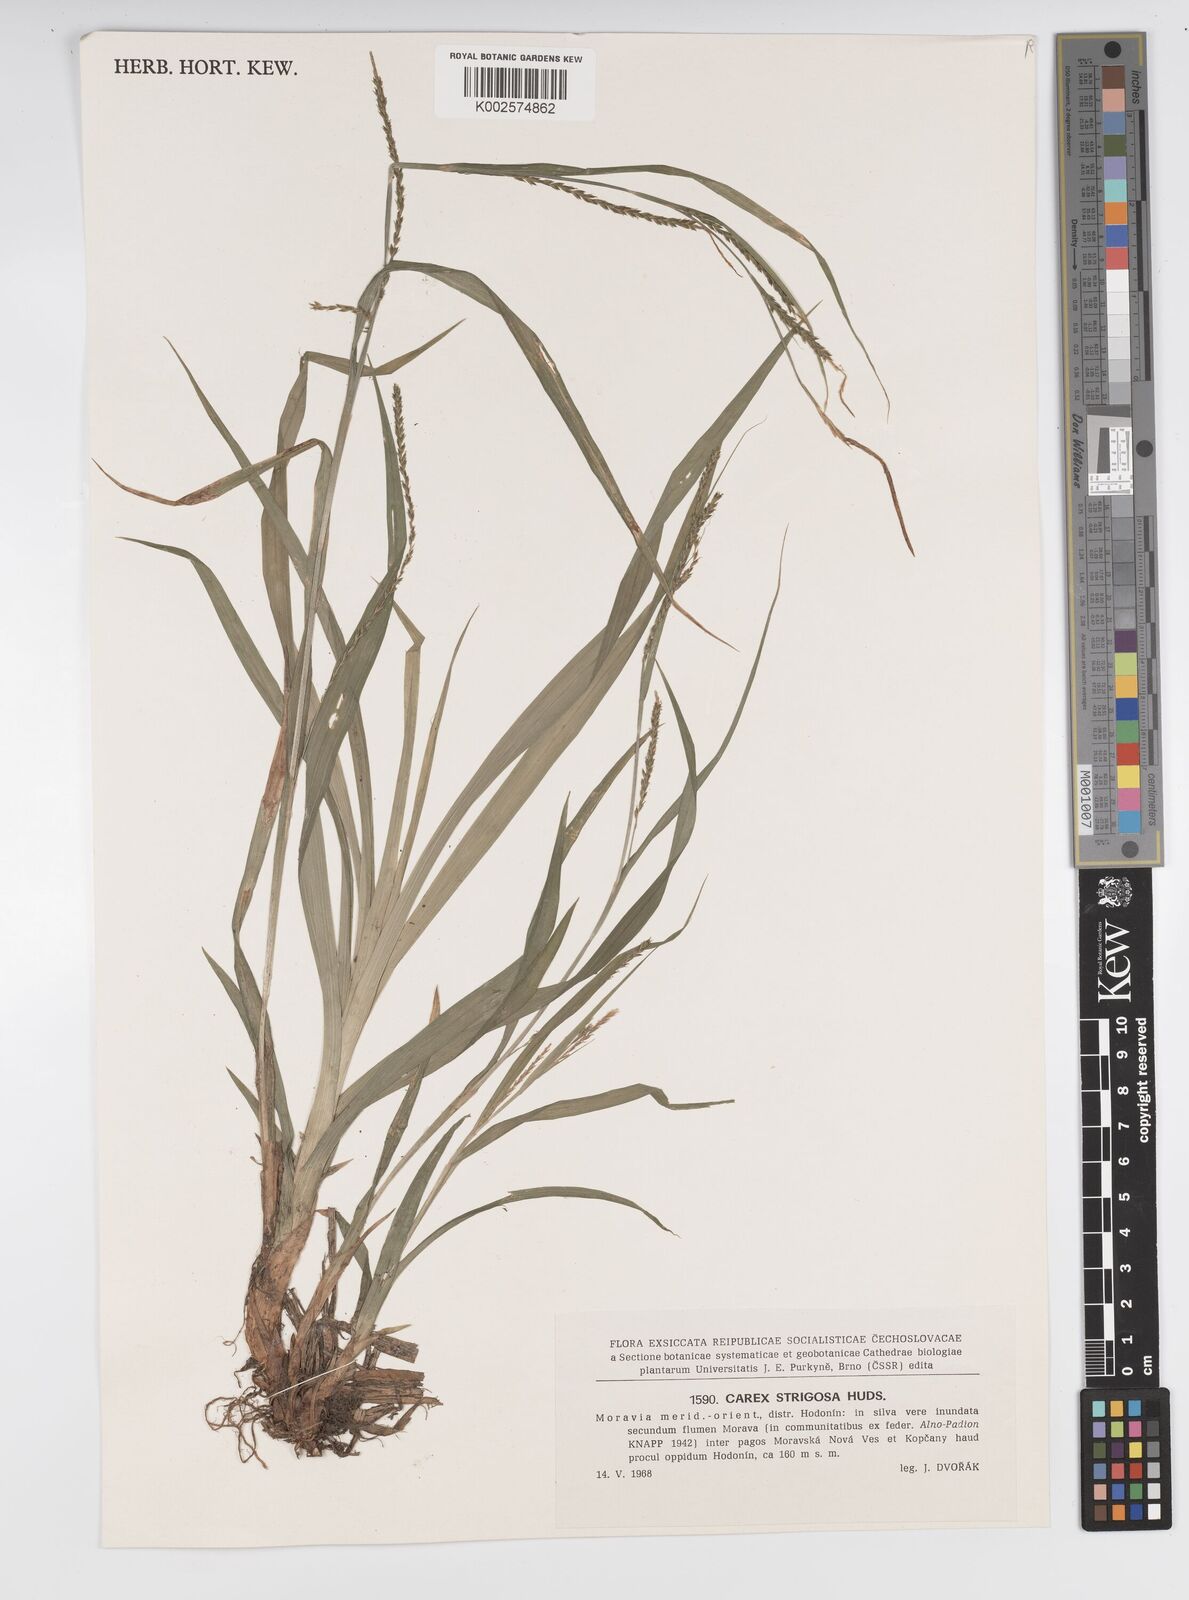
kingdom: Plantae
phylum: Tracheophyta
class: Liliopsida
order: Poales
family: Cyperaceae
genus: Carex
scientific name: Carex strigosa
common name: Thin-spiked wood-sedge
